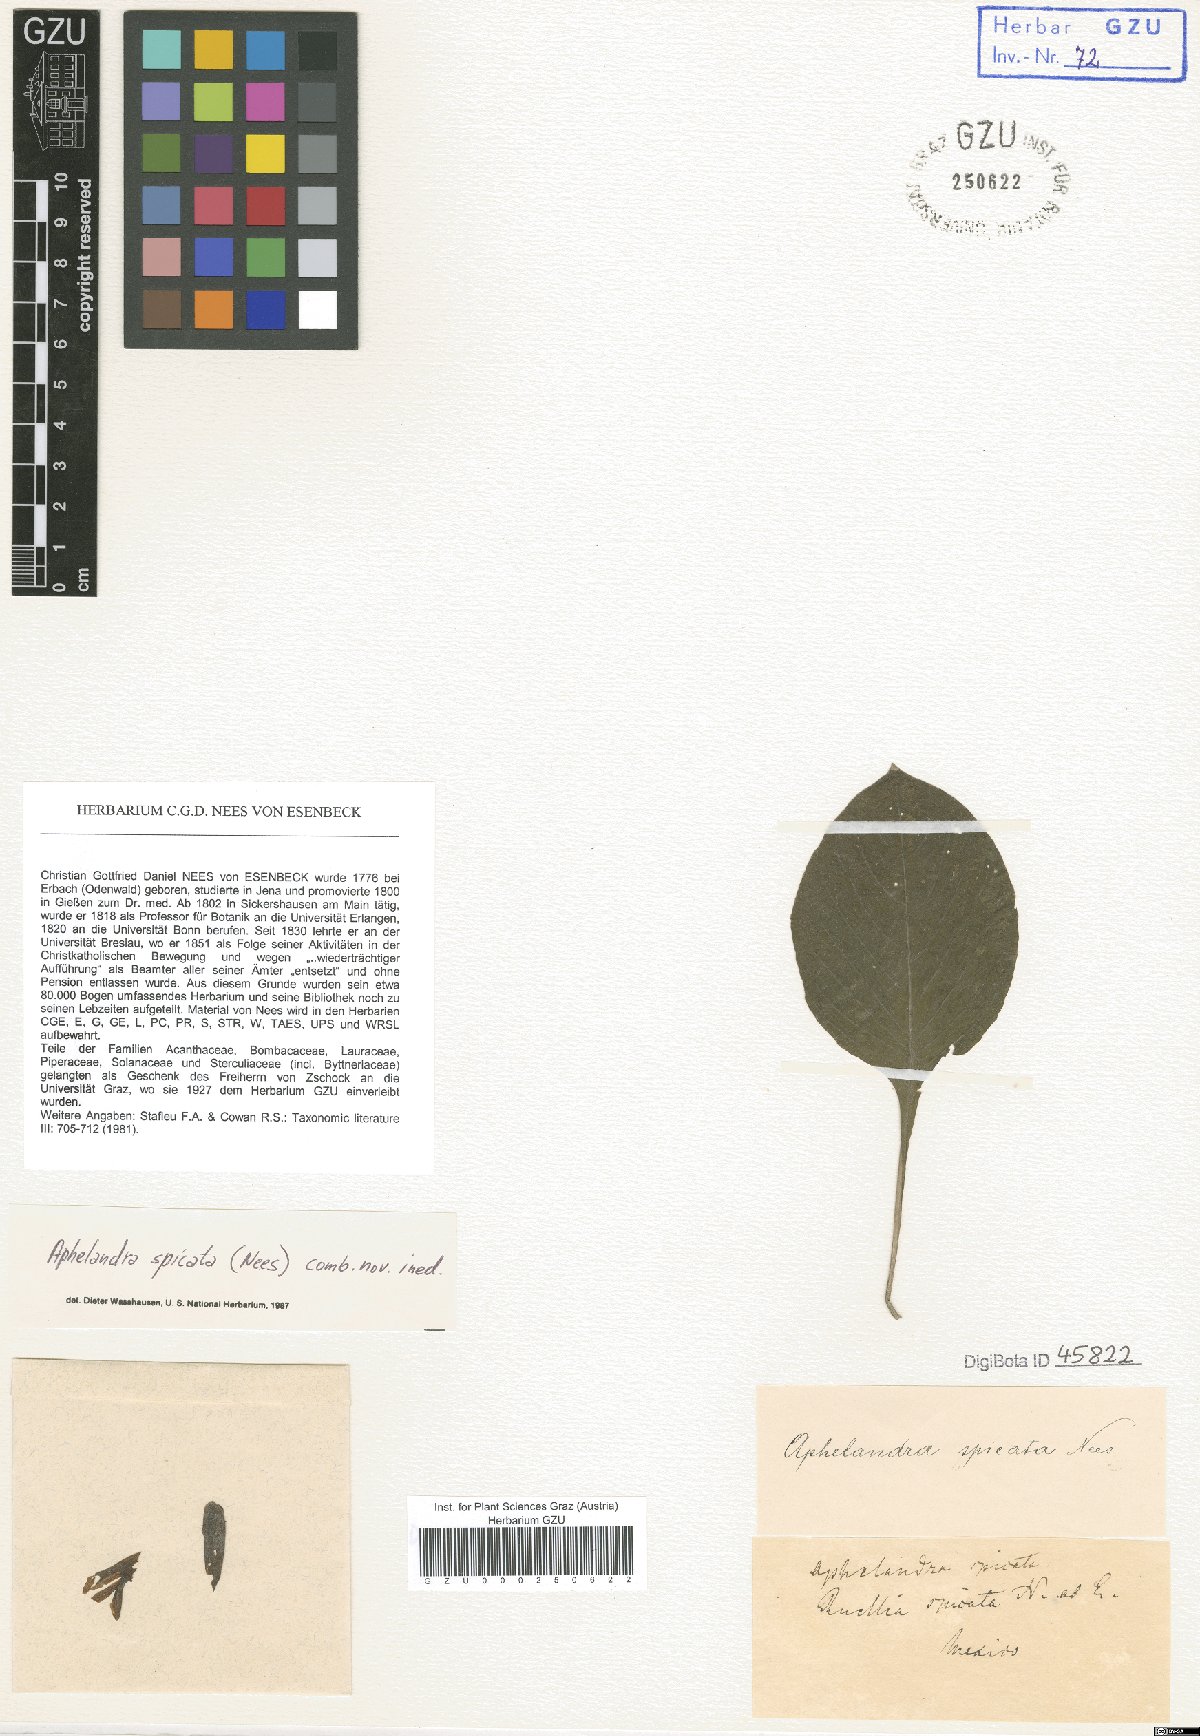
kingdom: Plantae
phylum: Tracheophyta
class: Magnoliopsida
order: Lamiales
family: Acanthaceae
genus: Aphelandra
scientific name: Aphelandra Lagochilium spicatum
